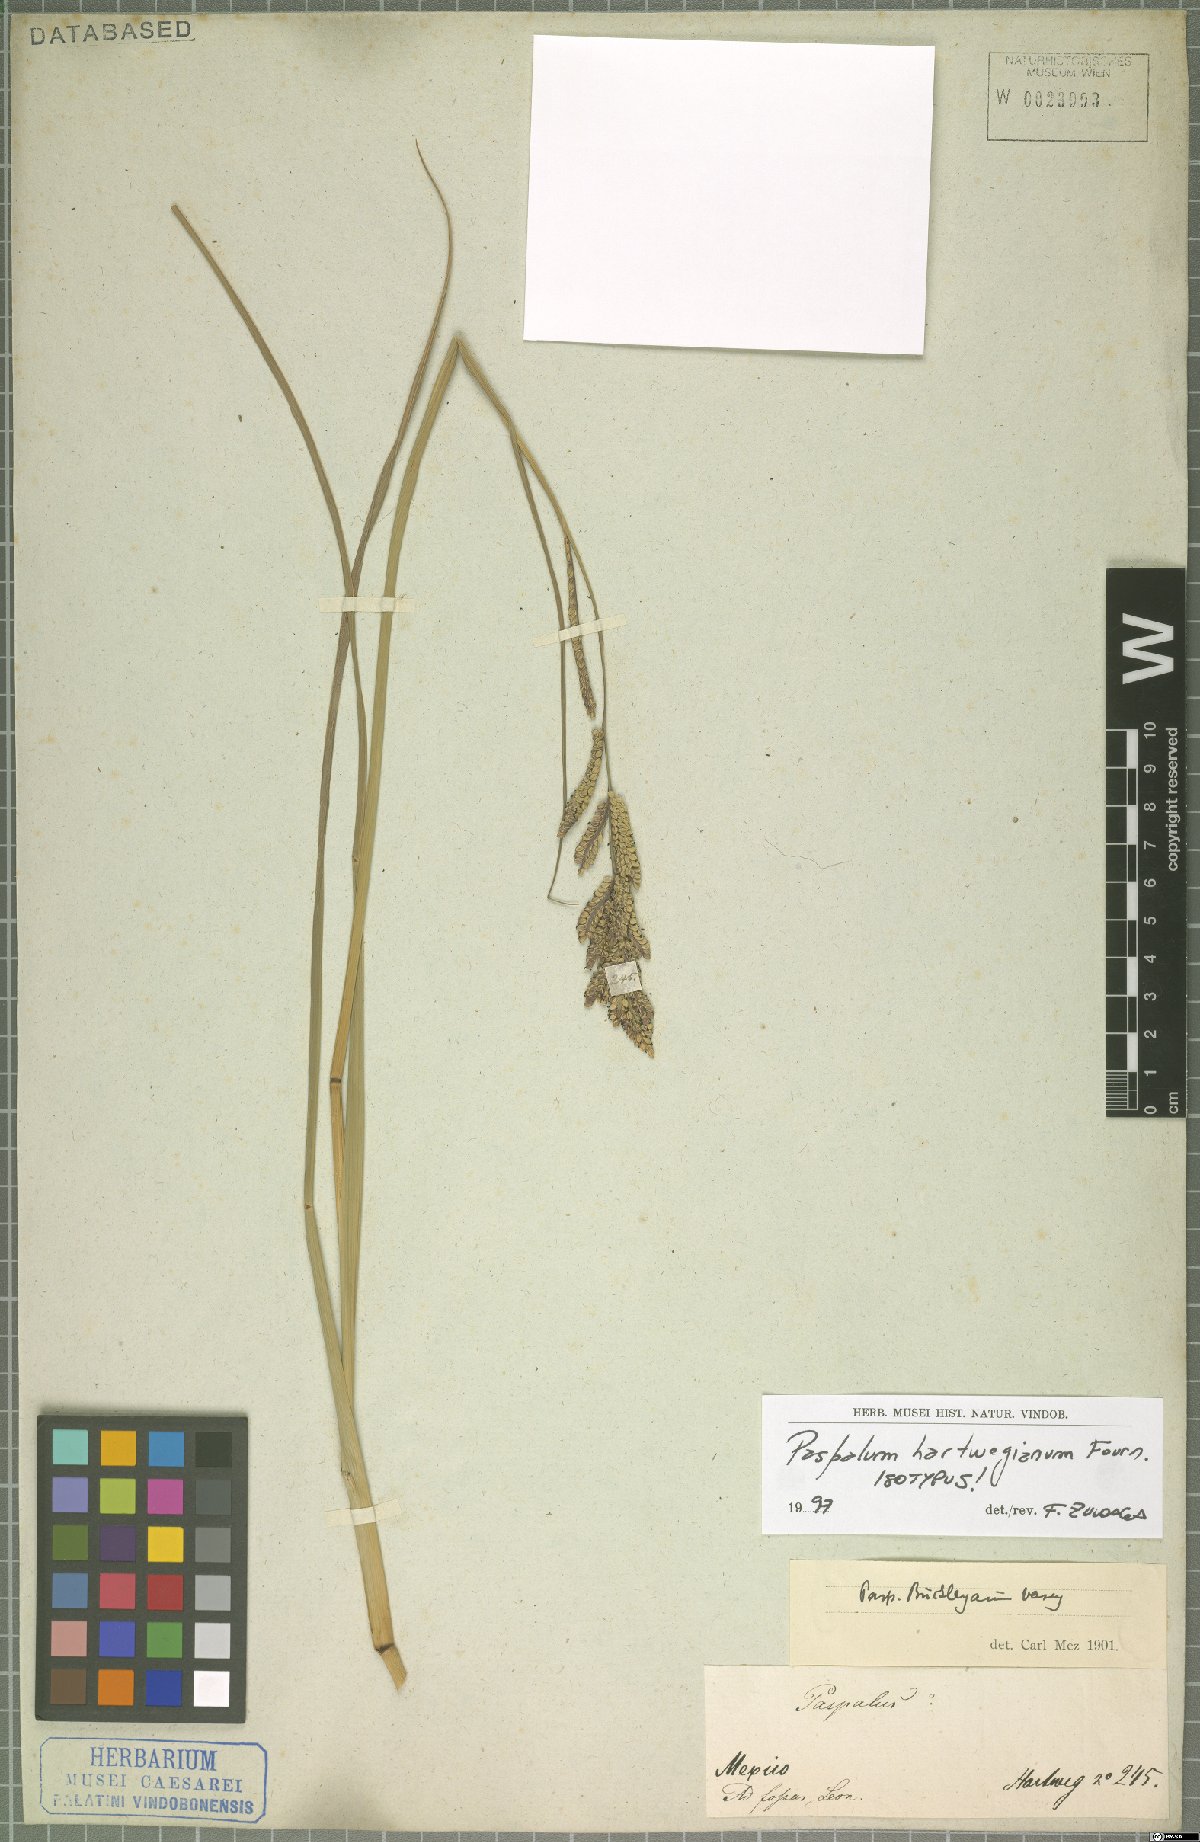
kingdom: Plantae
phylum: Tracheophyta
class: Liliopsida
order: Poales
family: Poaceae
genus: Paspalum
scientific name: Paspalum hartwegianum
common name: Hartweg's paspalum
